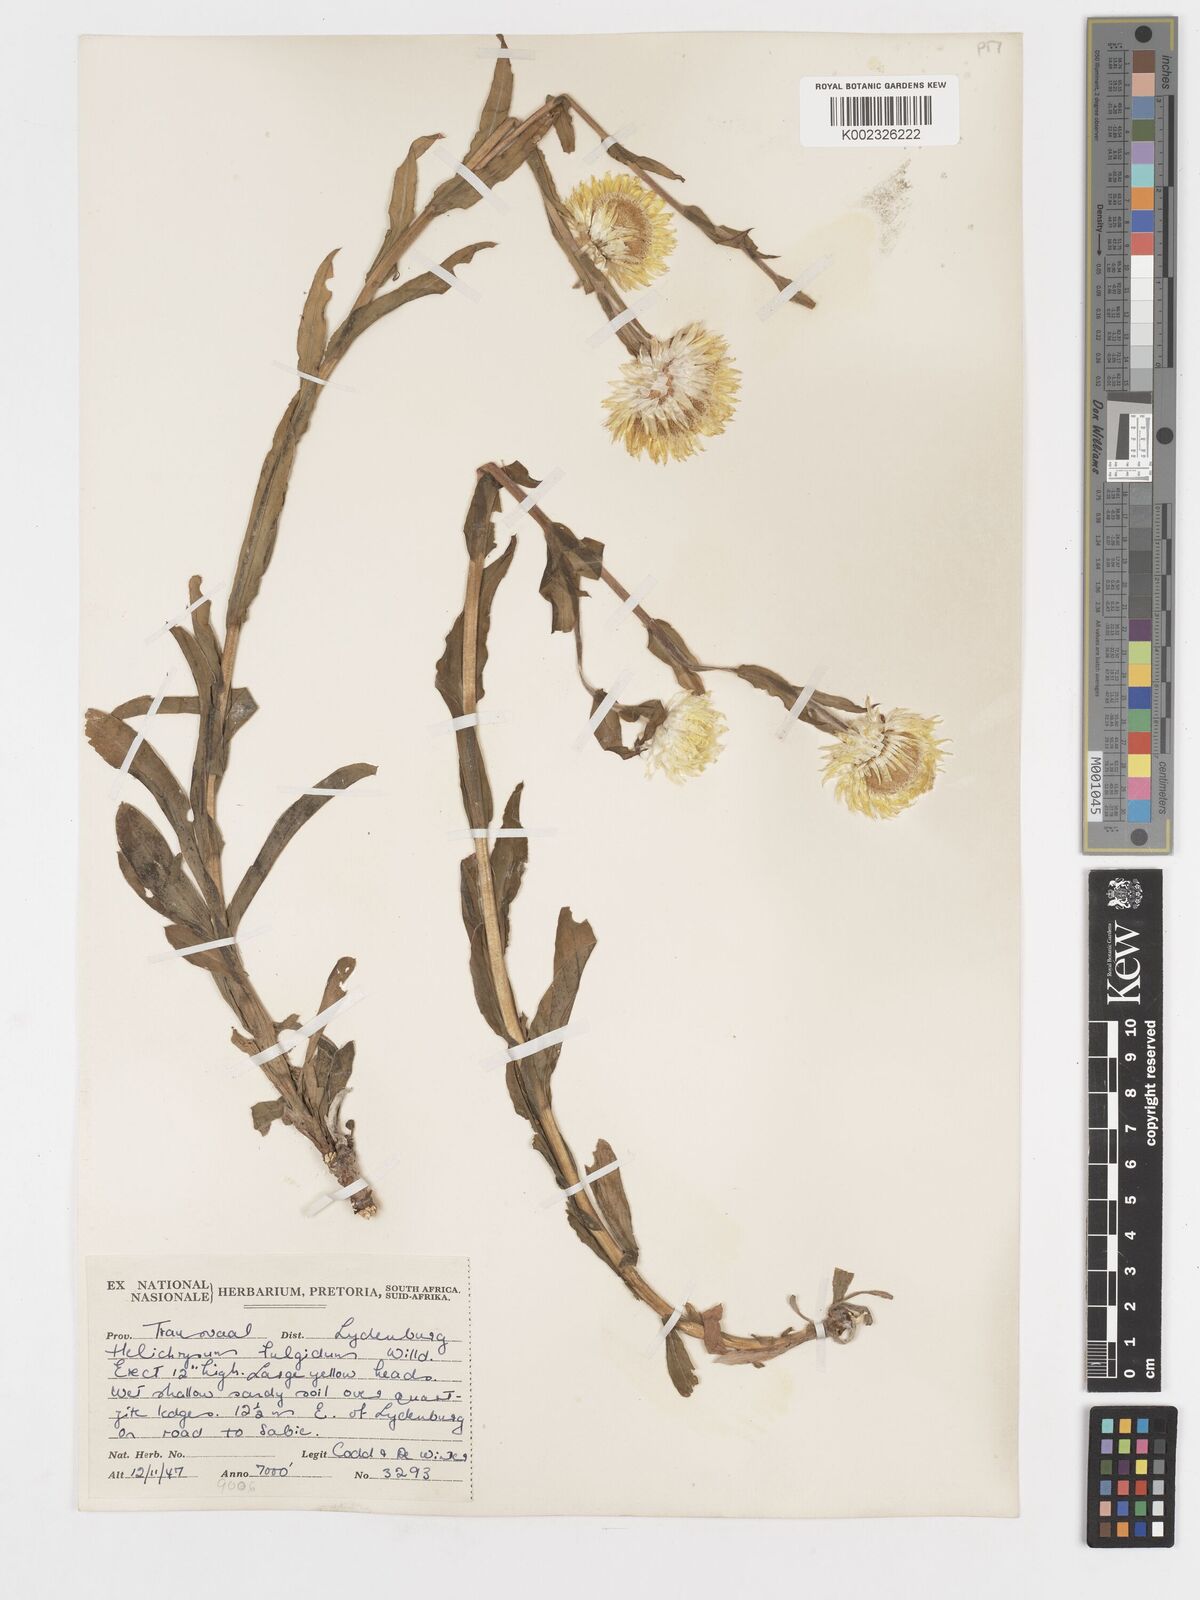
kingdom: Plantae
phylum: Tracheophyta
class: Magnoliopsida
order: Asterales
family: Asteraceae
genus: Helichrysum
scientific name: Helichrysum aureum
